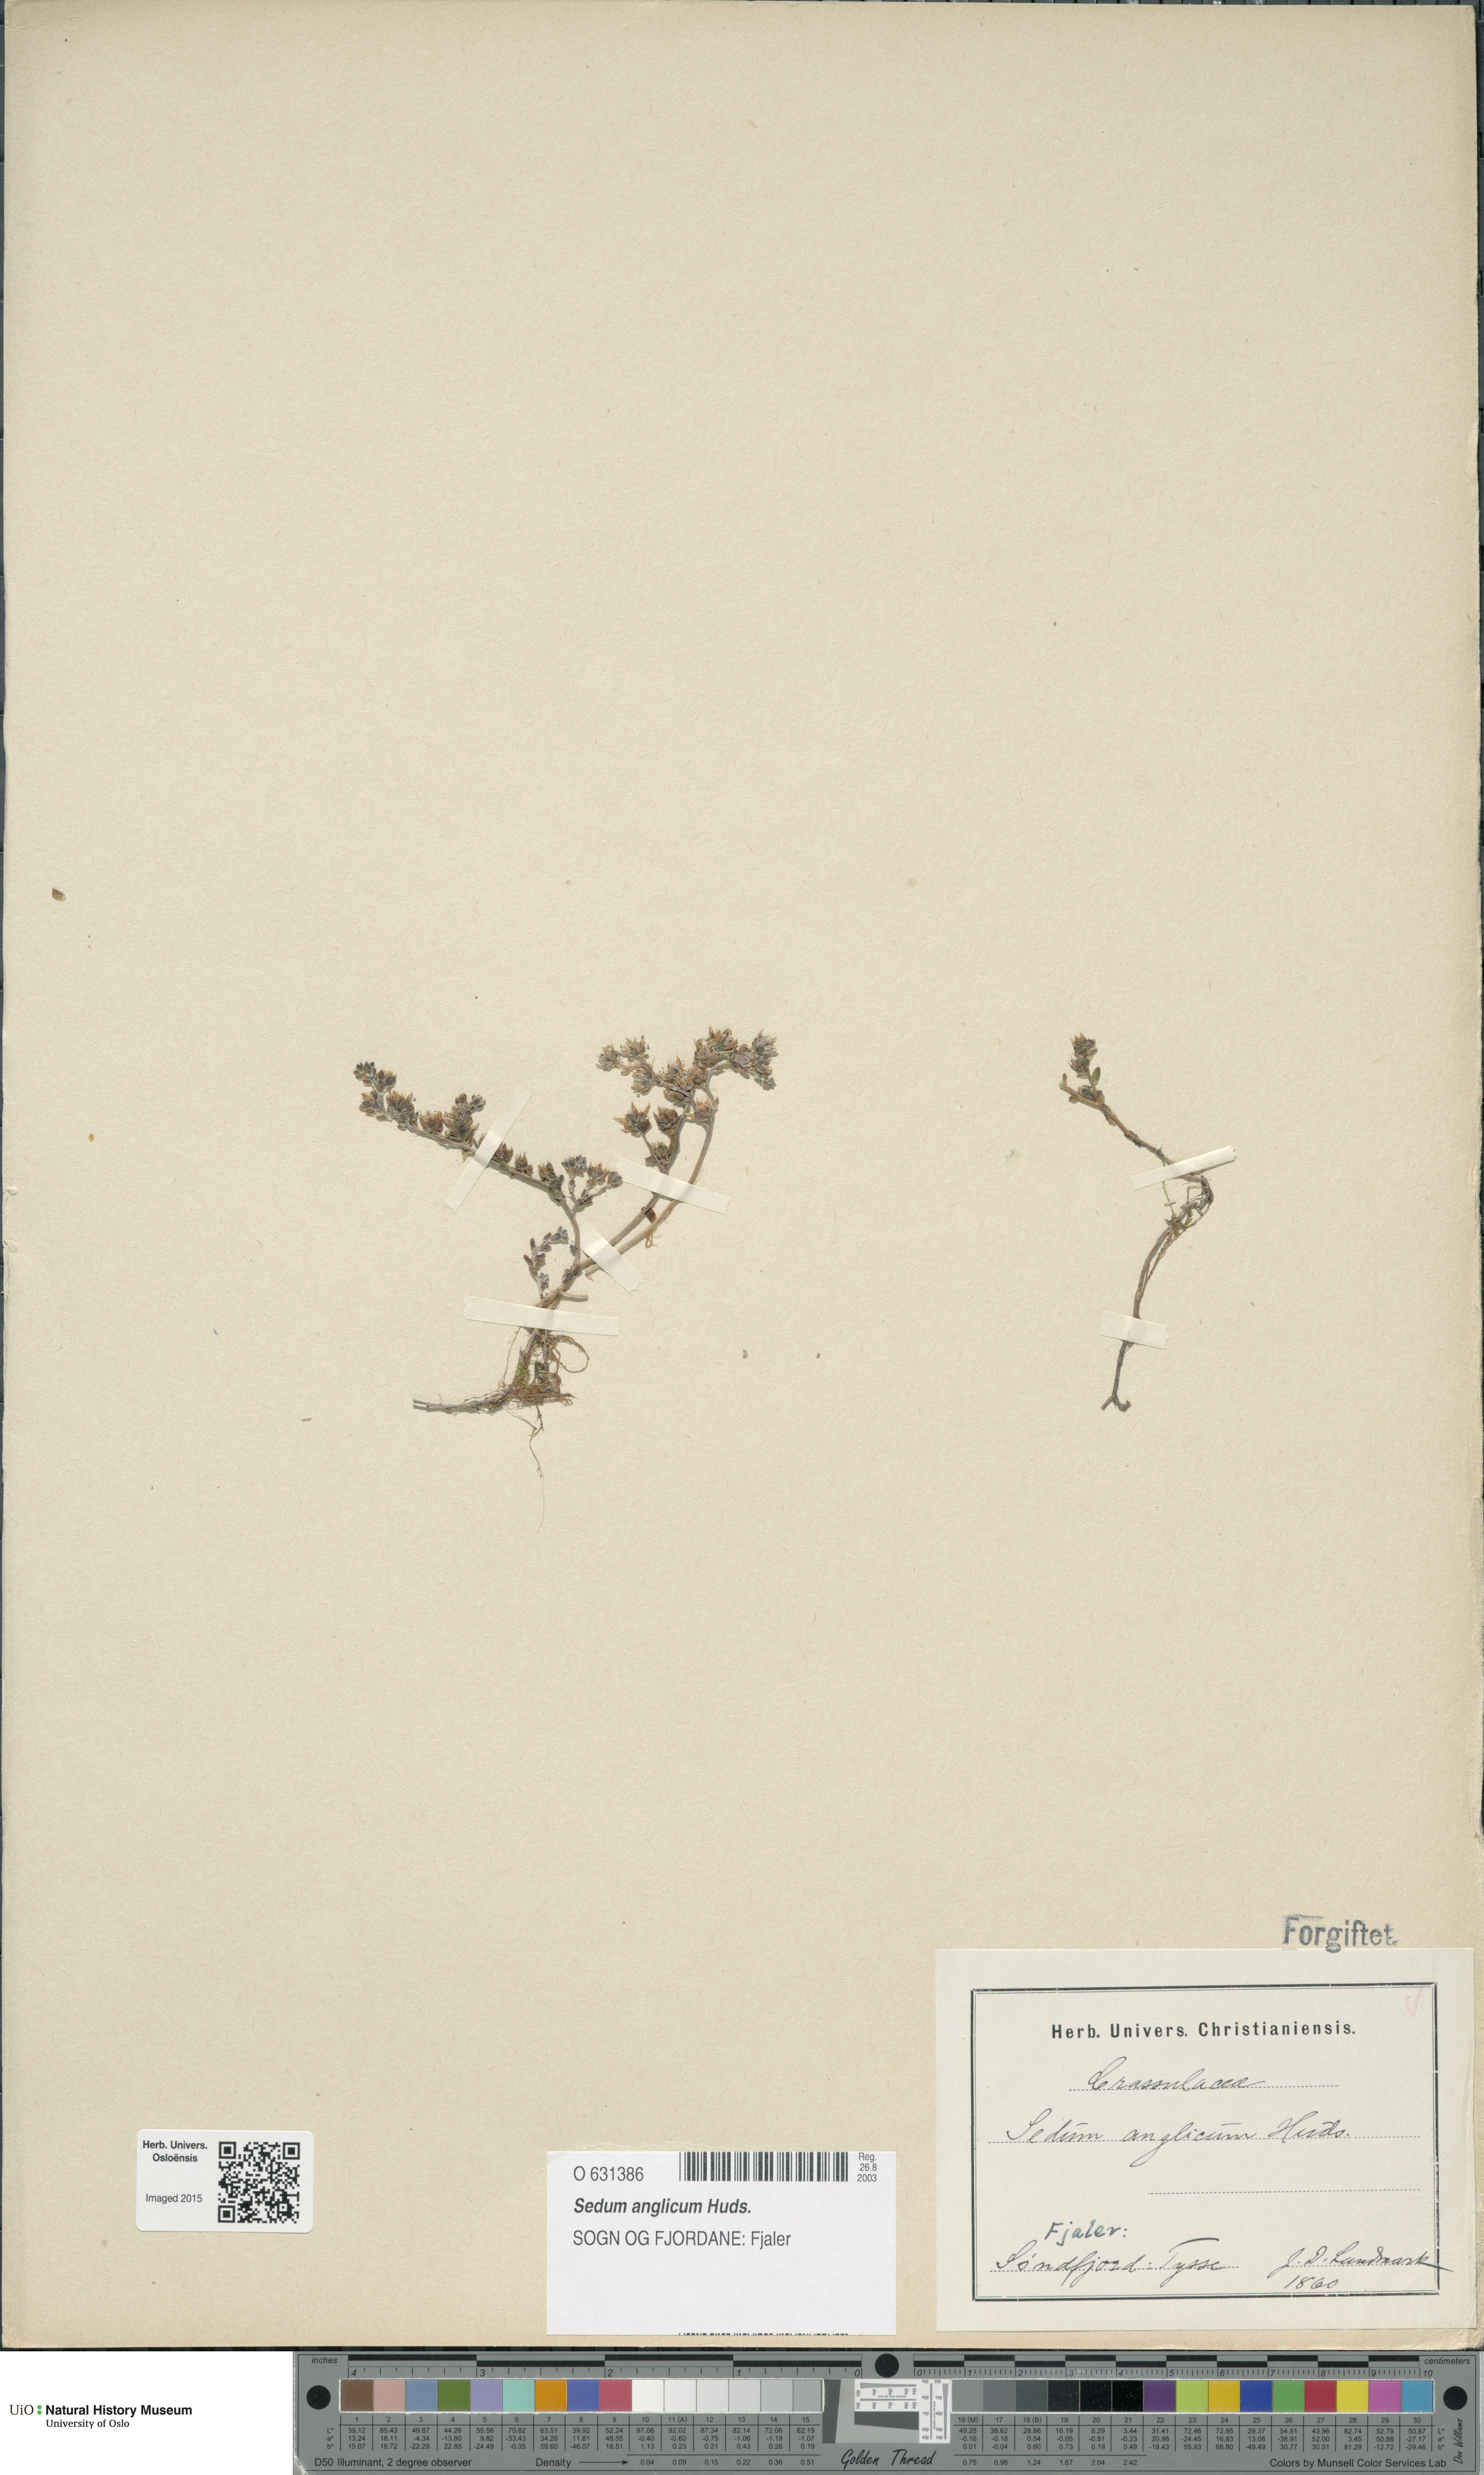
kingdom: Plantae
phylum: Tracheophyta
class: Magnoliopsida
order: Saxifragales
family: Crassulaceae
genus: Sedum
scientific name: Sedum anglicum
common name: English stonecrop
